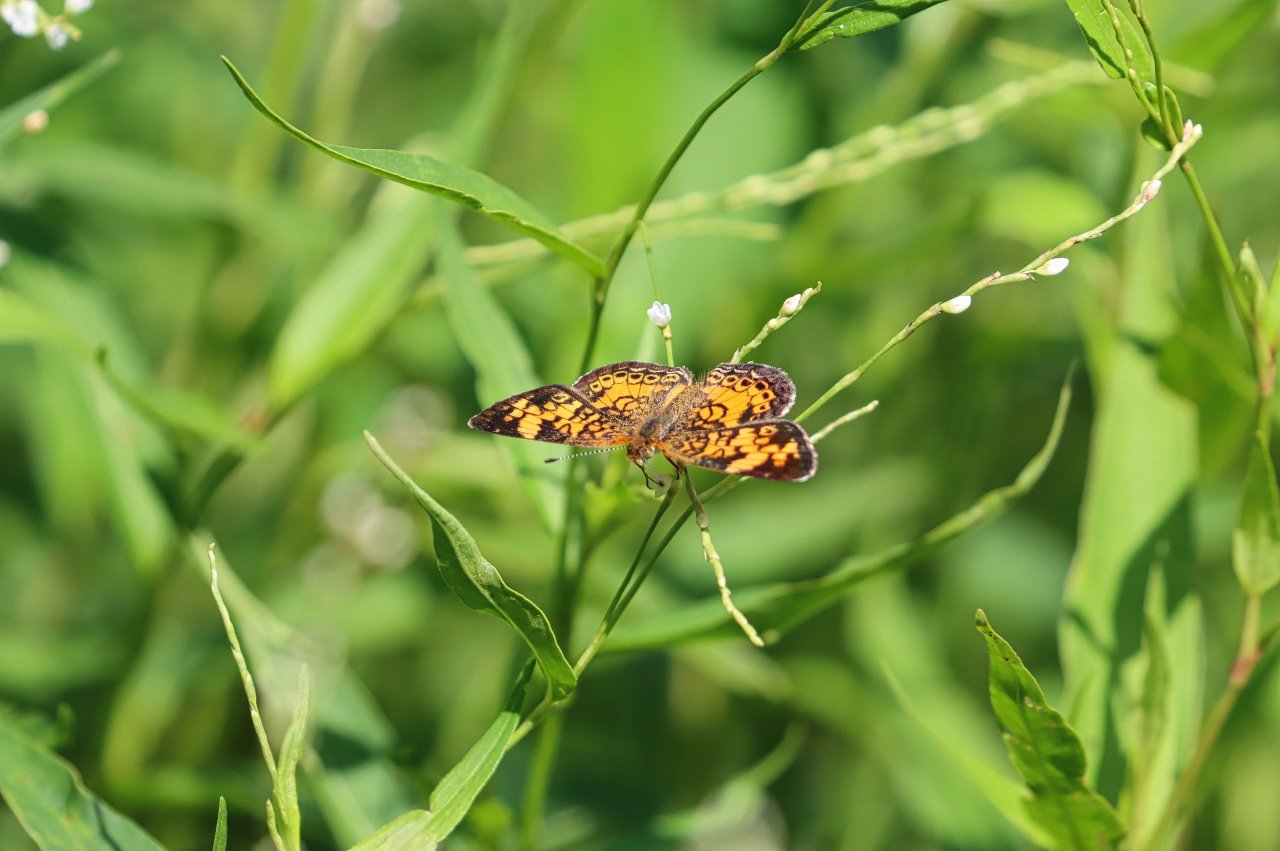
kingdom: Animalia
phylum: Arthropoda
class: Insecta
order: Lepidoptera
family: Nymphalidae
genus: Phyciodes
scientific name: Phyciodes tharos
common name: Pearl Crescent
